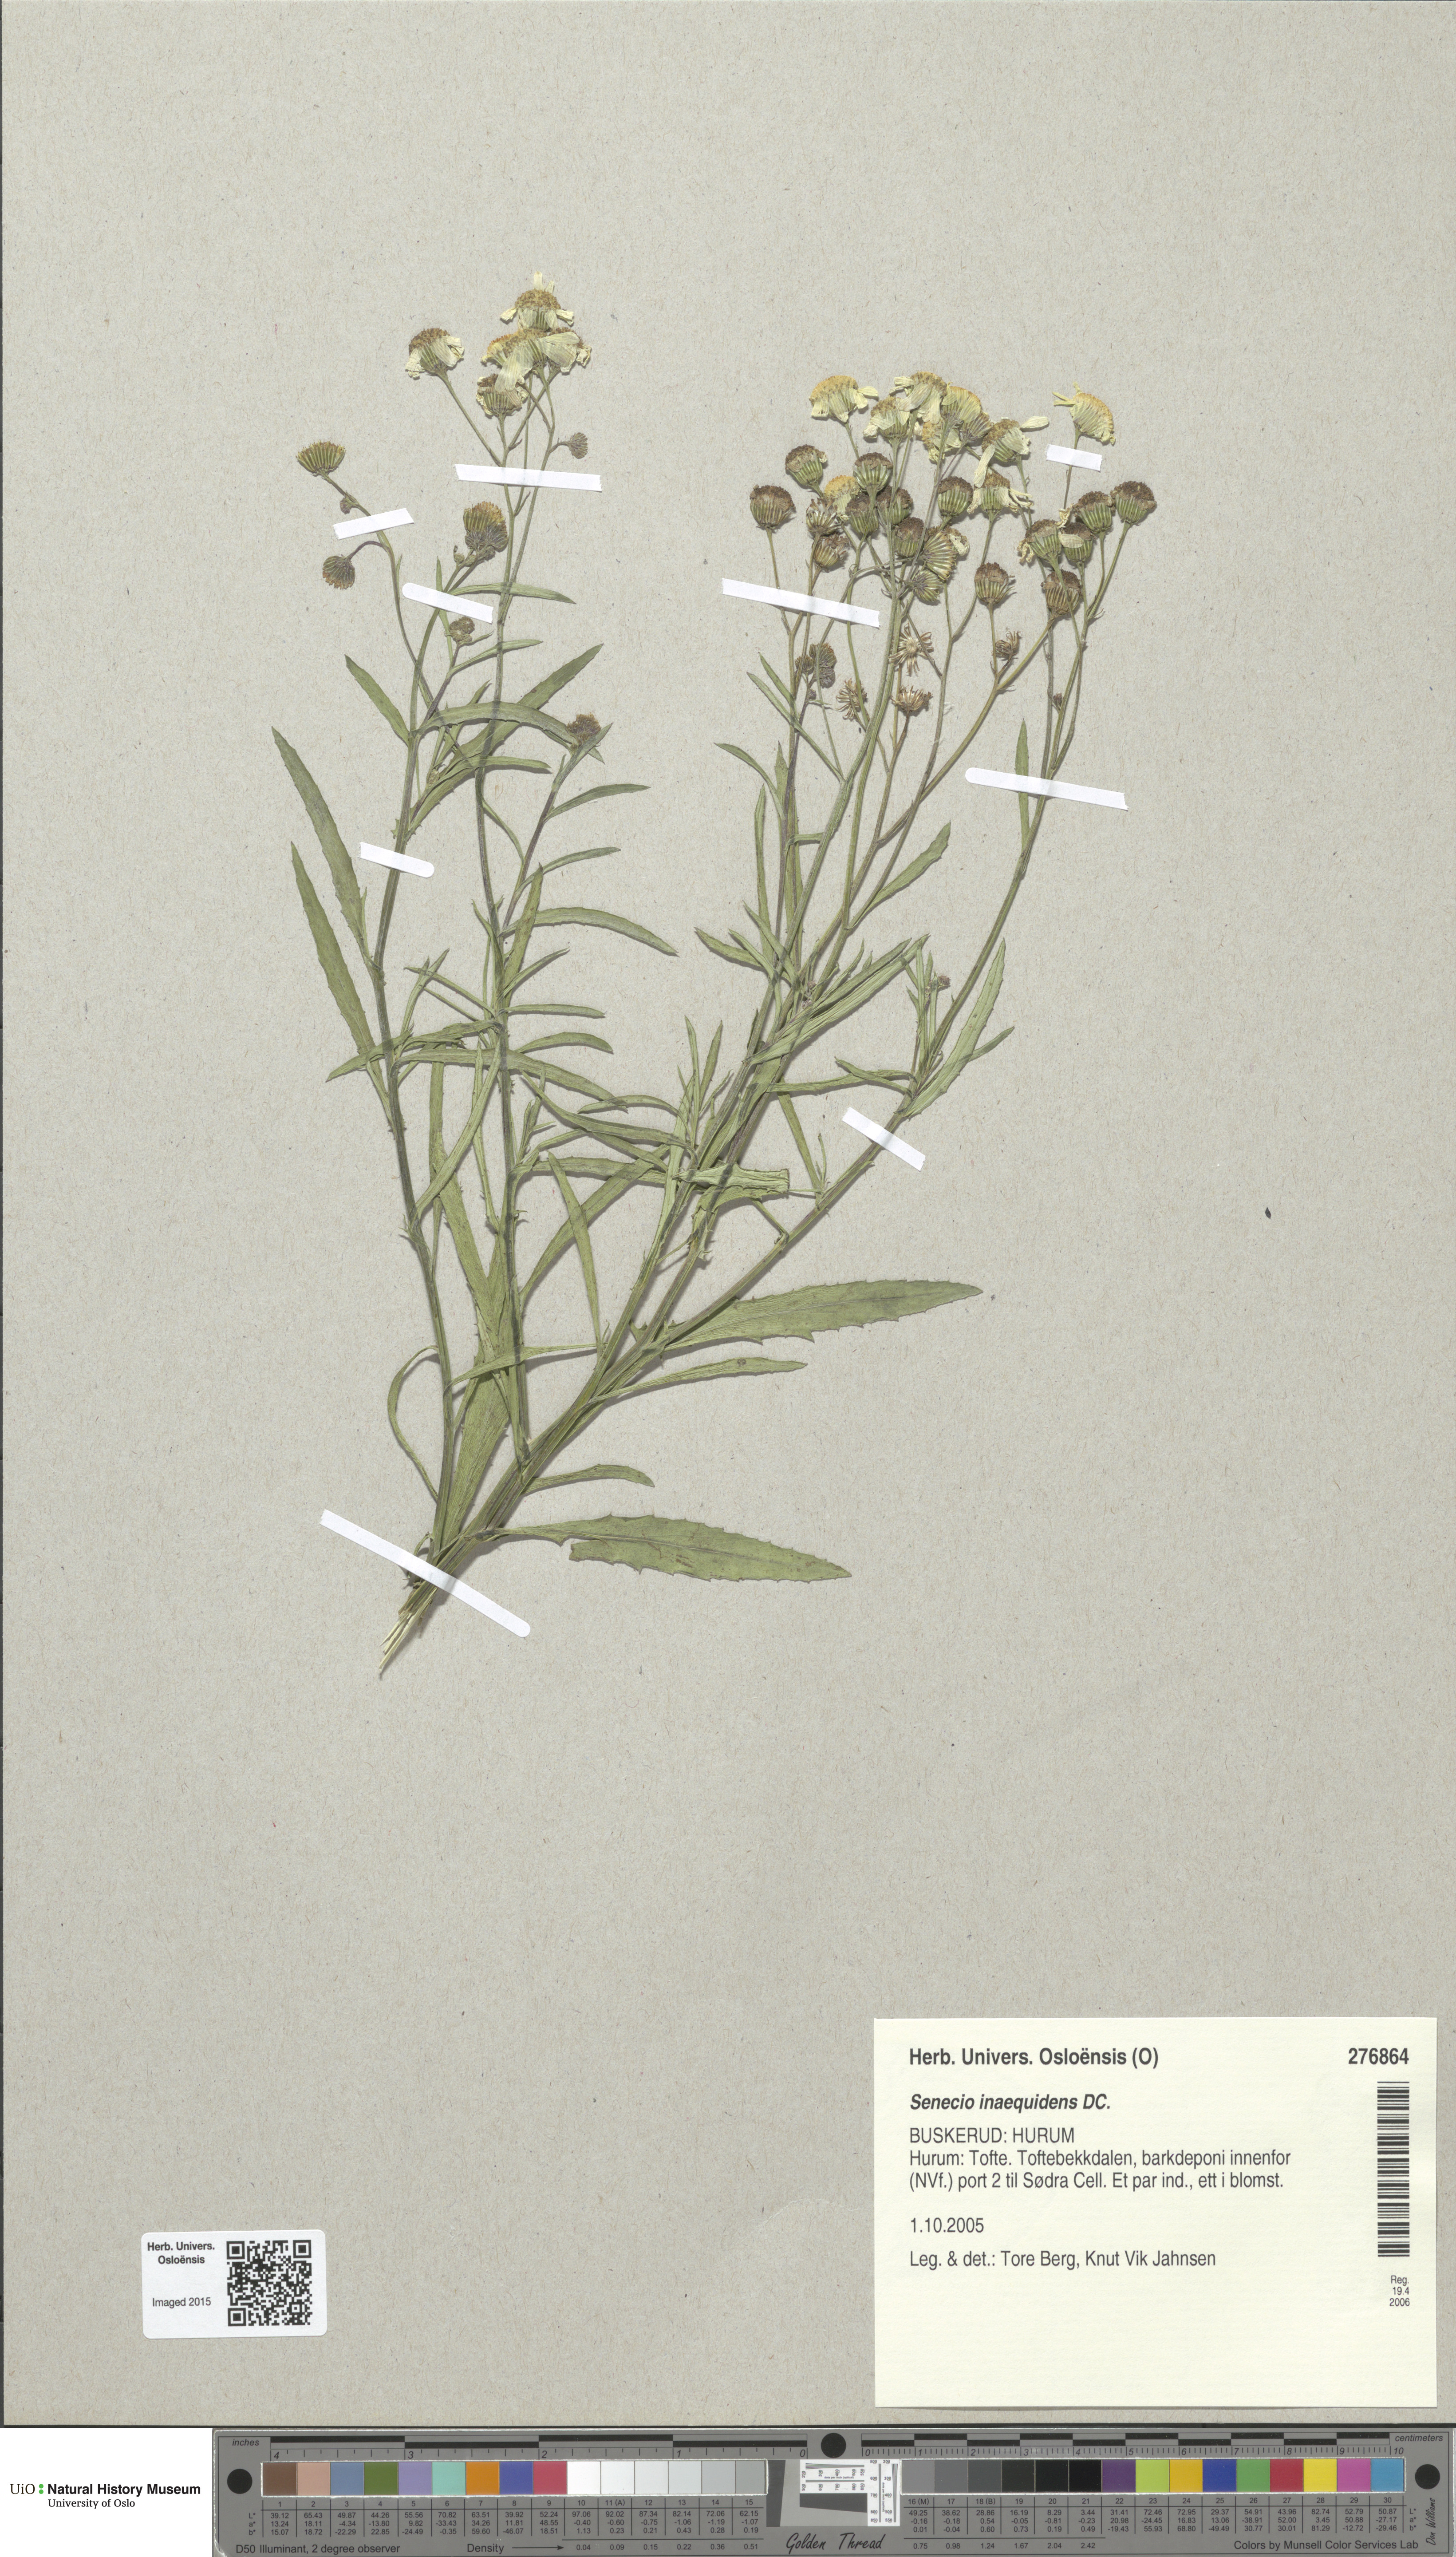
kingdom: Plantae
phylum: Tracheophyta
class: Magnoliopsida
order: Asterales
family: Asteraceae
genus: Senecio
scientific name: Senecio inaequidens
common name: Narrow-leaved ragwort
